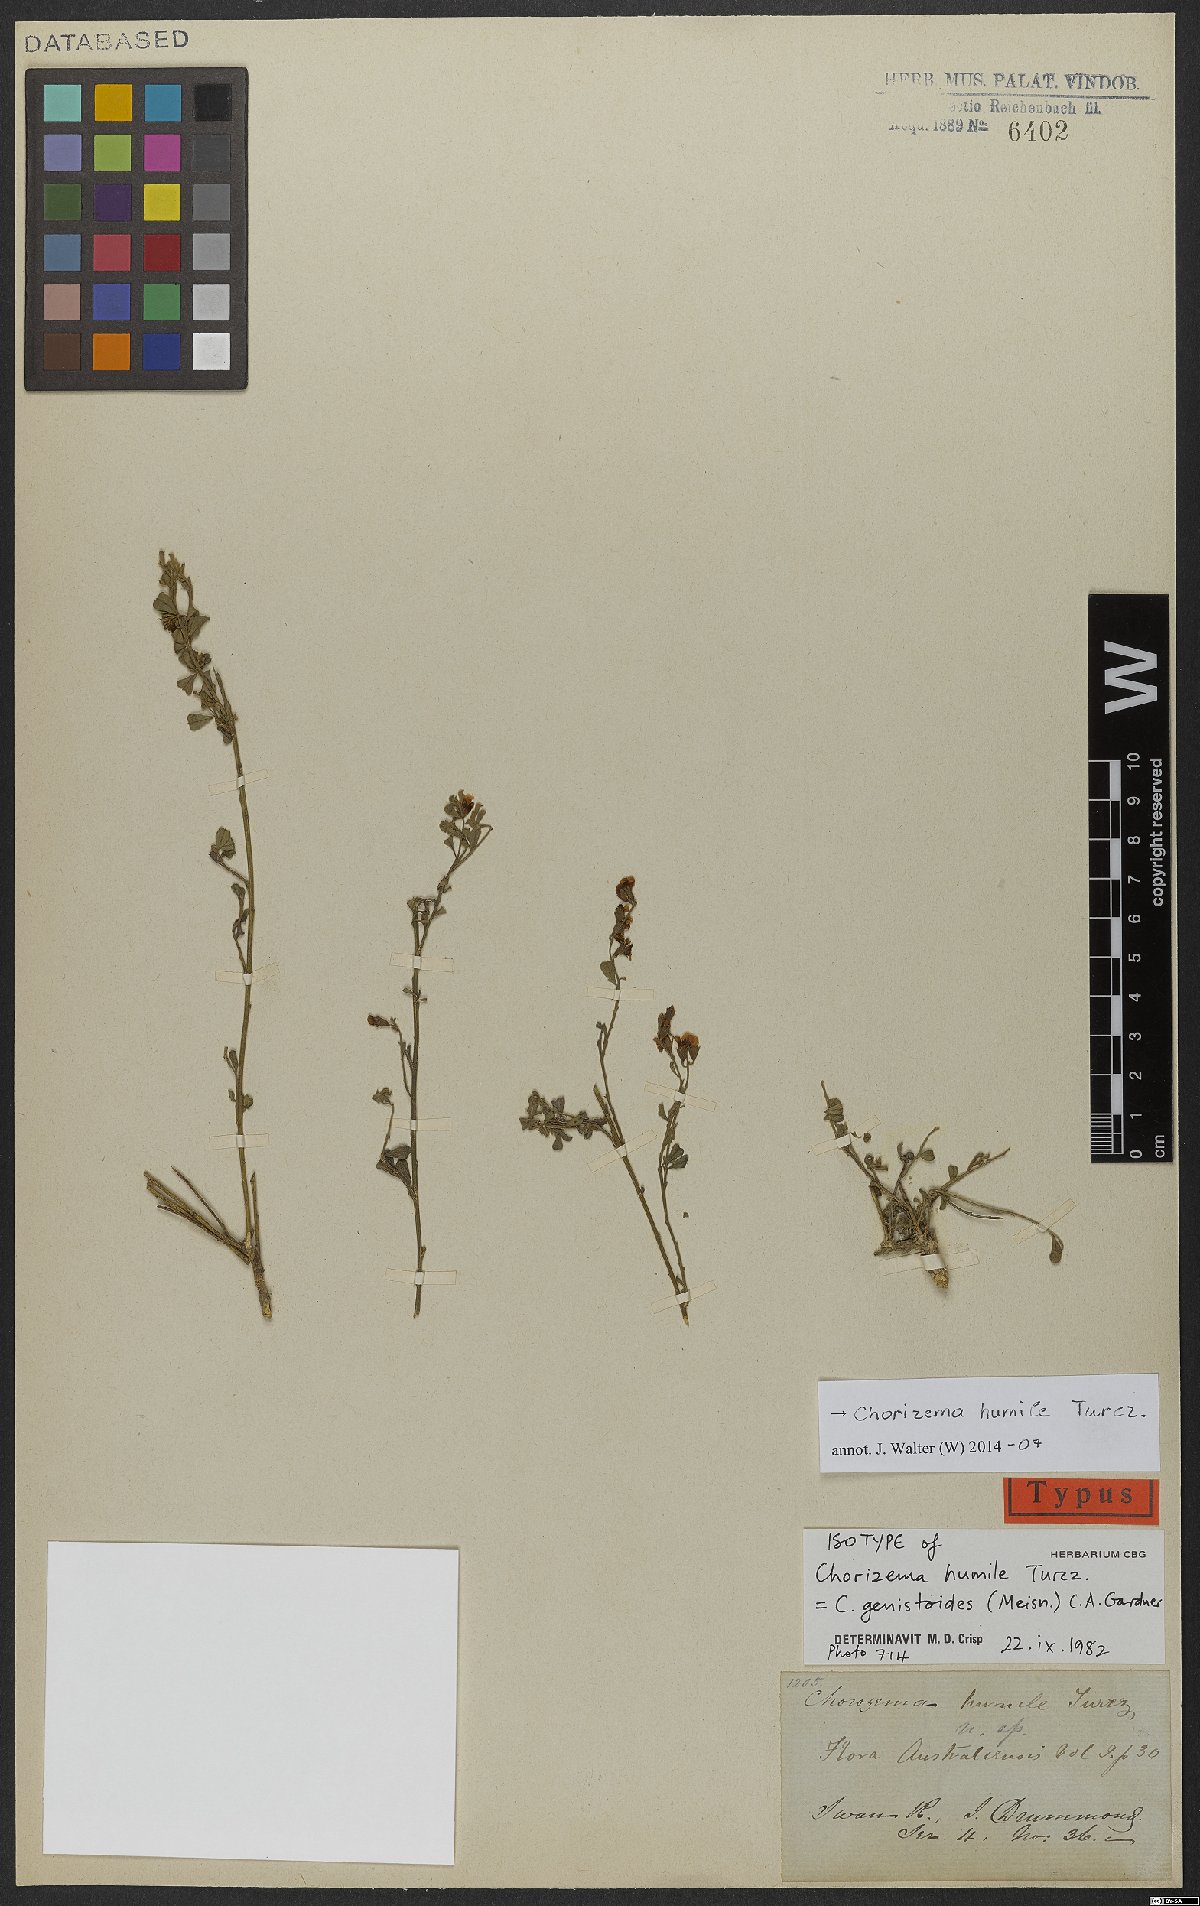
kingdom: Plantae
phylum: Tracheophyta
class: Magnoliopsida
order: Fabales
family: Fabaceae
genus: Chorizema
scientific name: Chorizema humile
